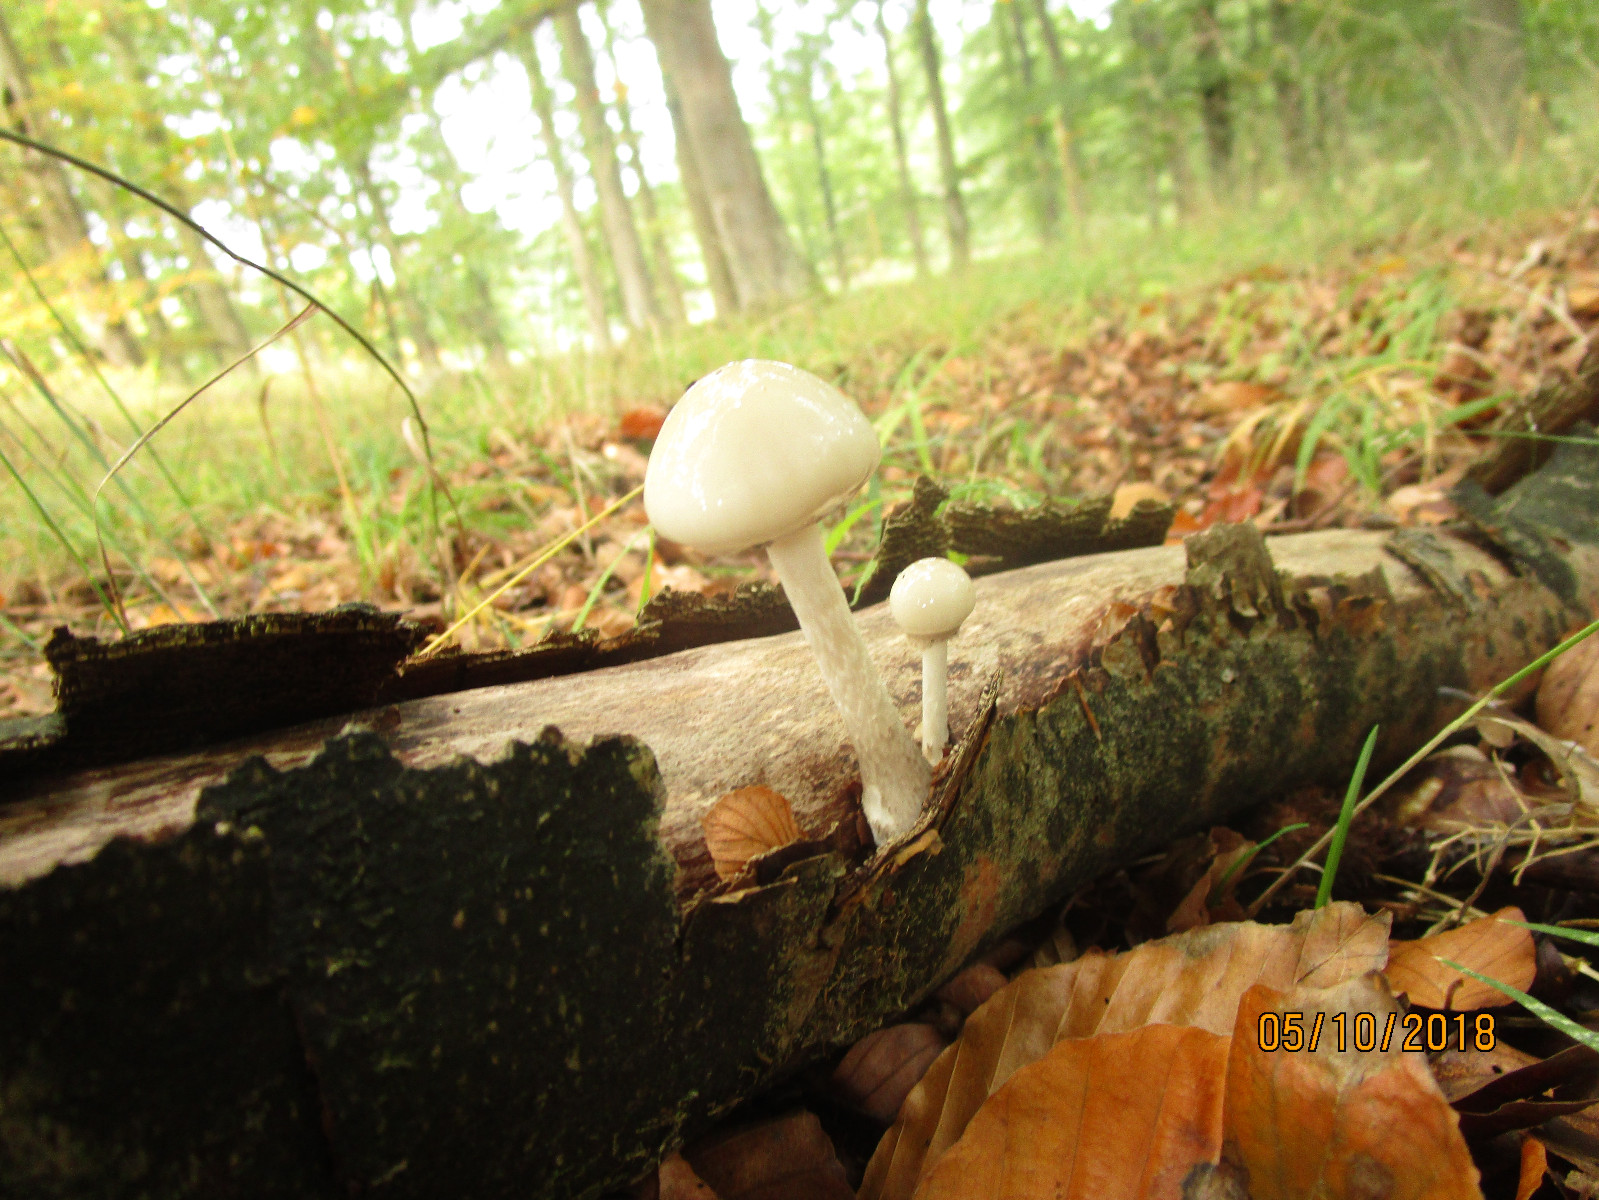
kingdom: Fungi
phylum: Basidiomycota
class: Agaricomycetes
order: Agaricales
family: Physalacriaceae
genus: Mucidula
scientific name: Mucidula mucida
